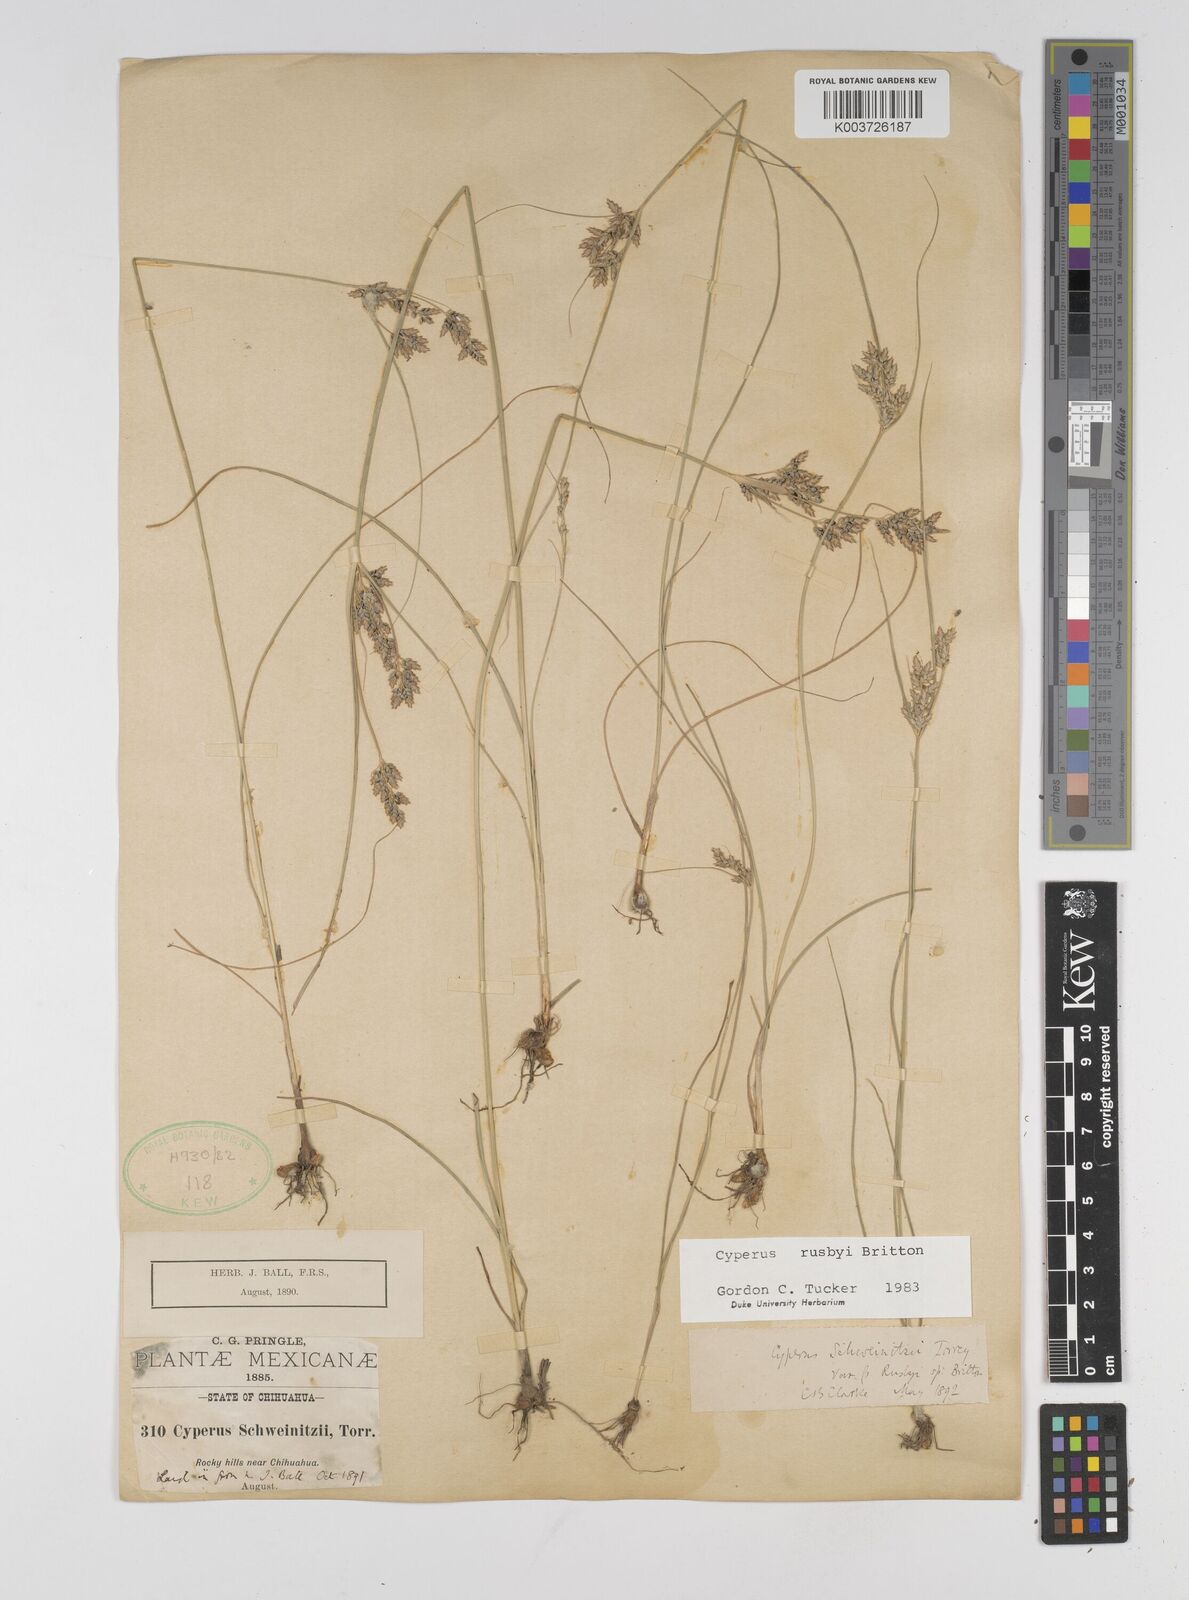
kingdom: Plantae
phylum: Tracheophyta
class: Liliopsida
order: Poales
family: Cyperaceae
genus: Cyperus
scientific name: Cyperus sphaerolepis
